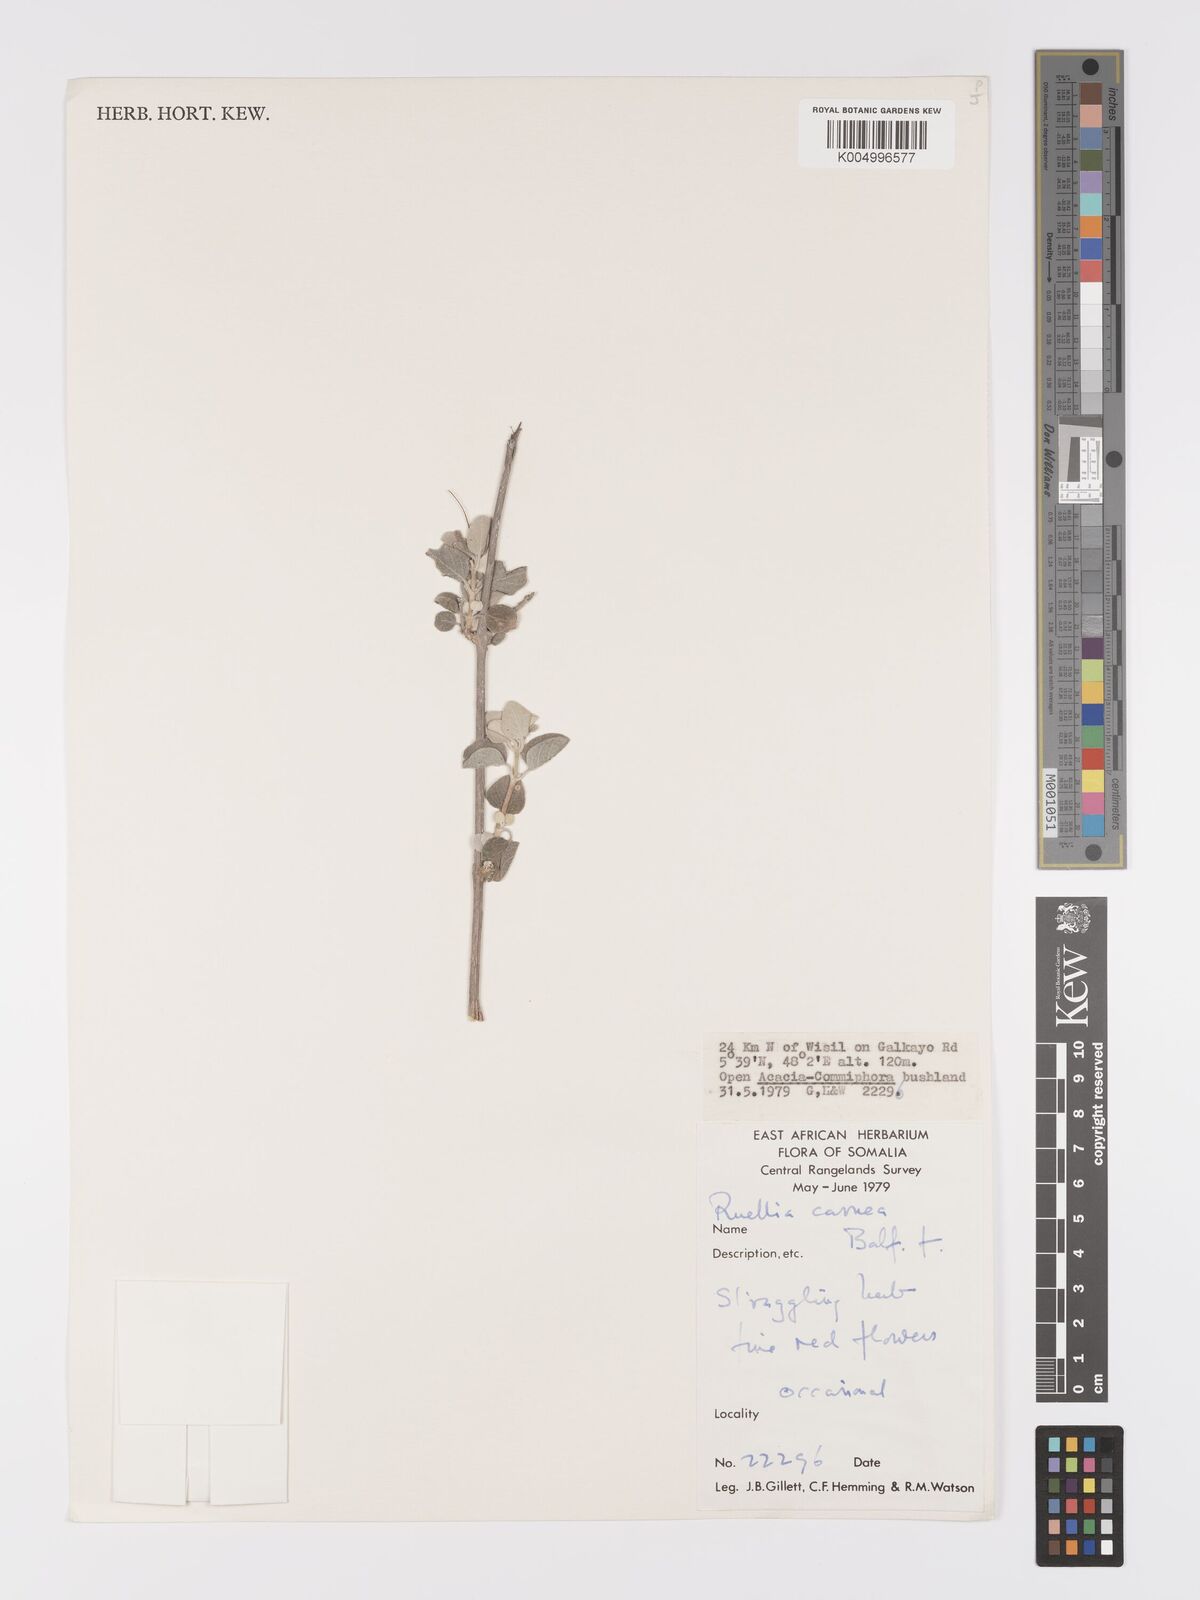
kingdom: Plantae
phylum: Tracheophyta
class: Magnoliopsida
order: Lamiales
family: Acanthaceae
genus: Ruellia
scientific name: Ruellia carnea
